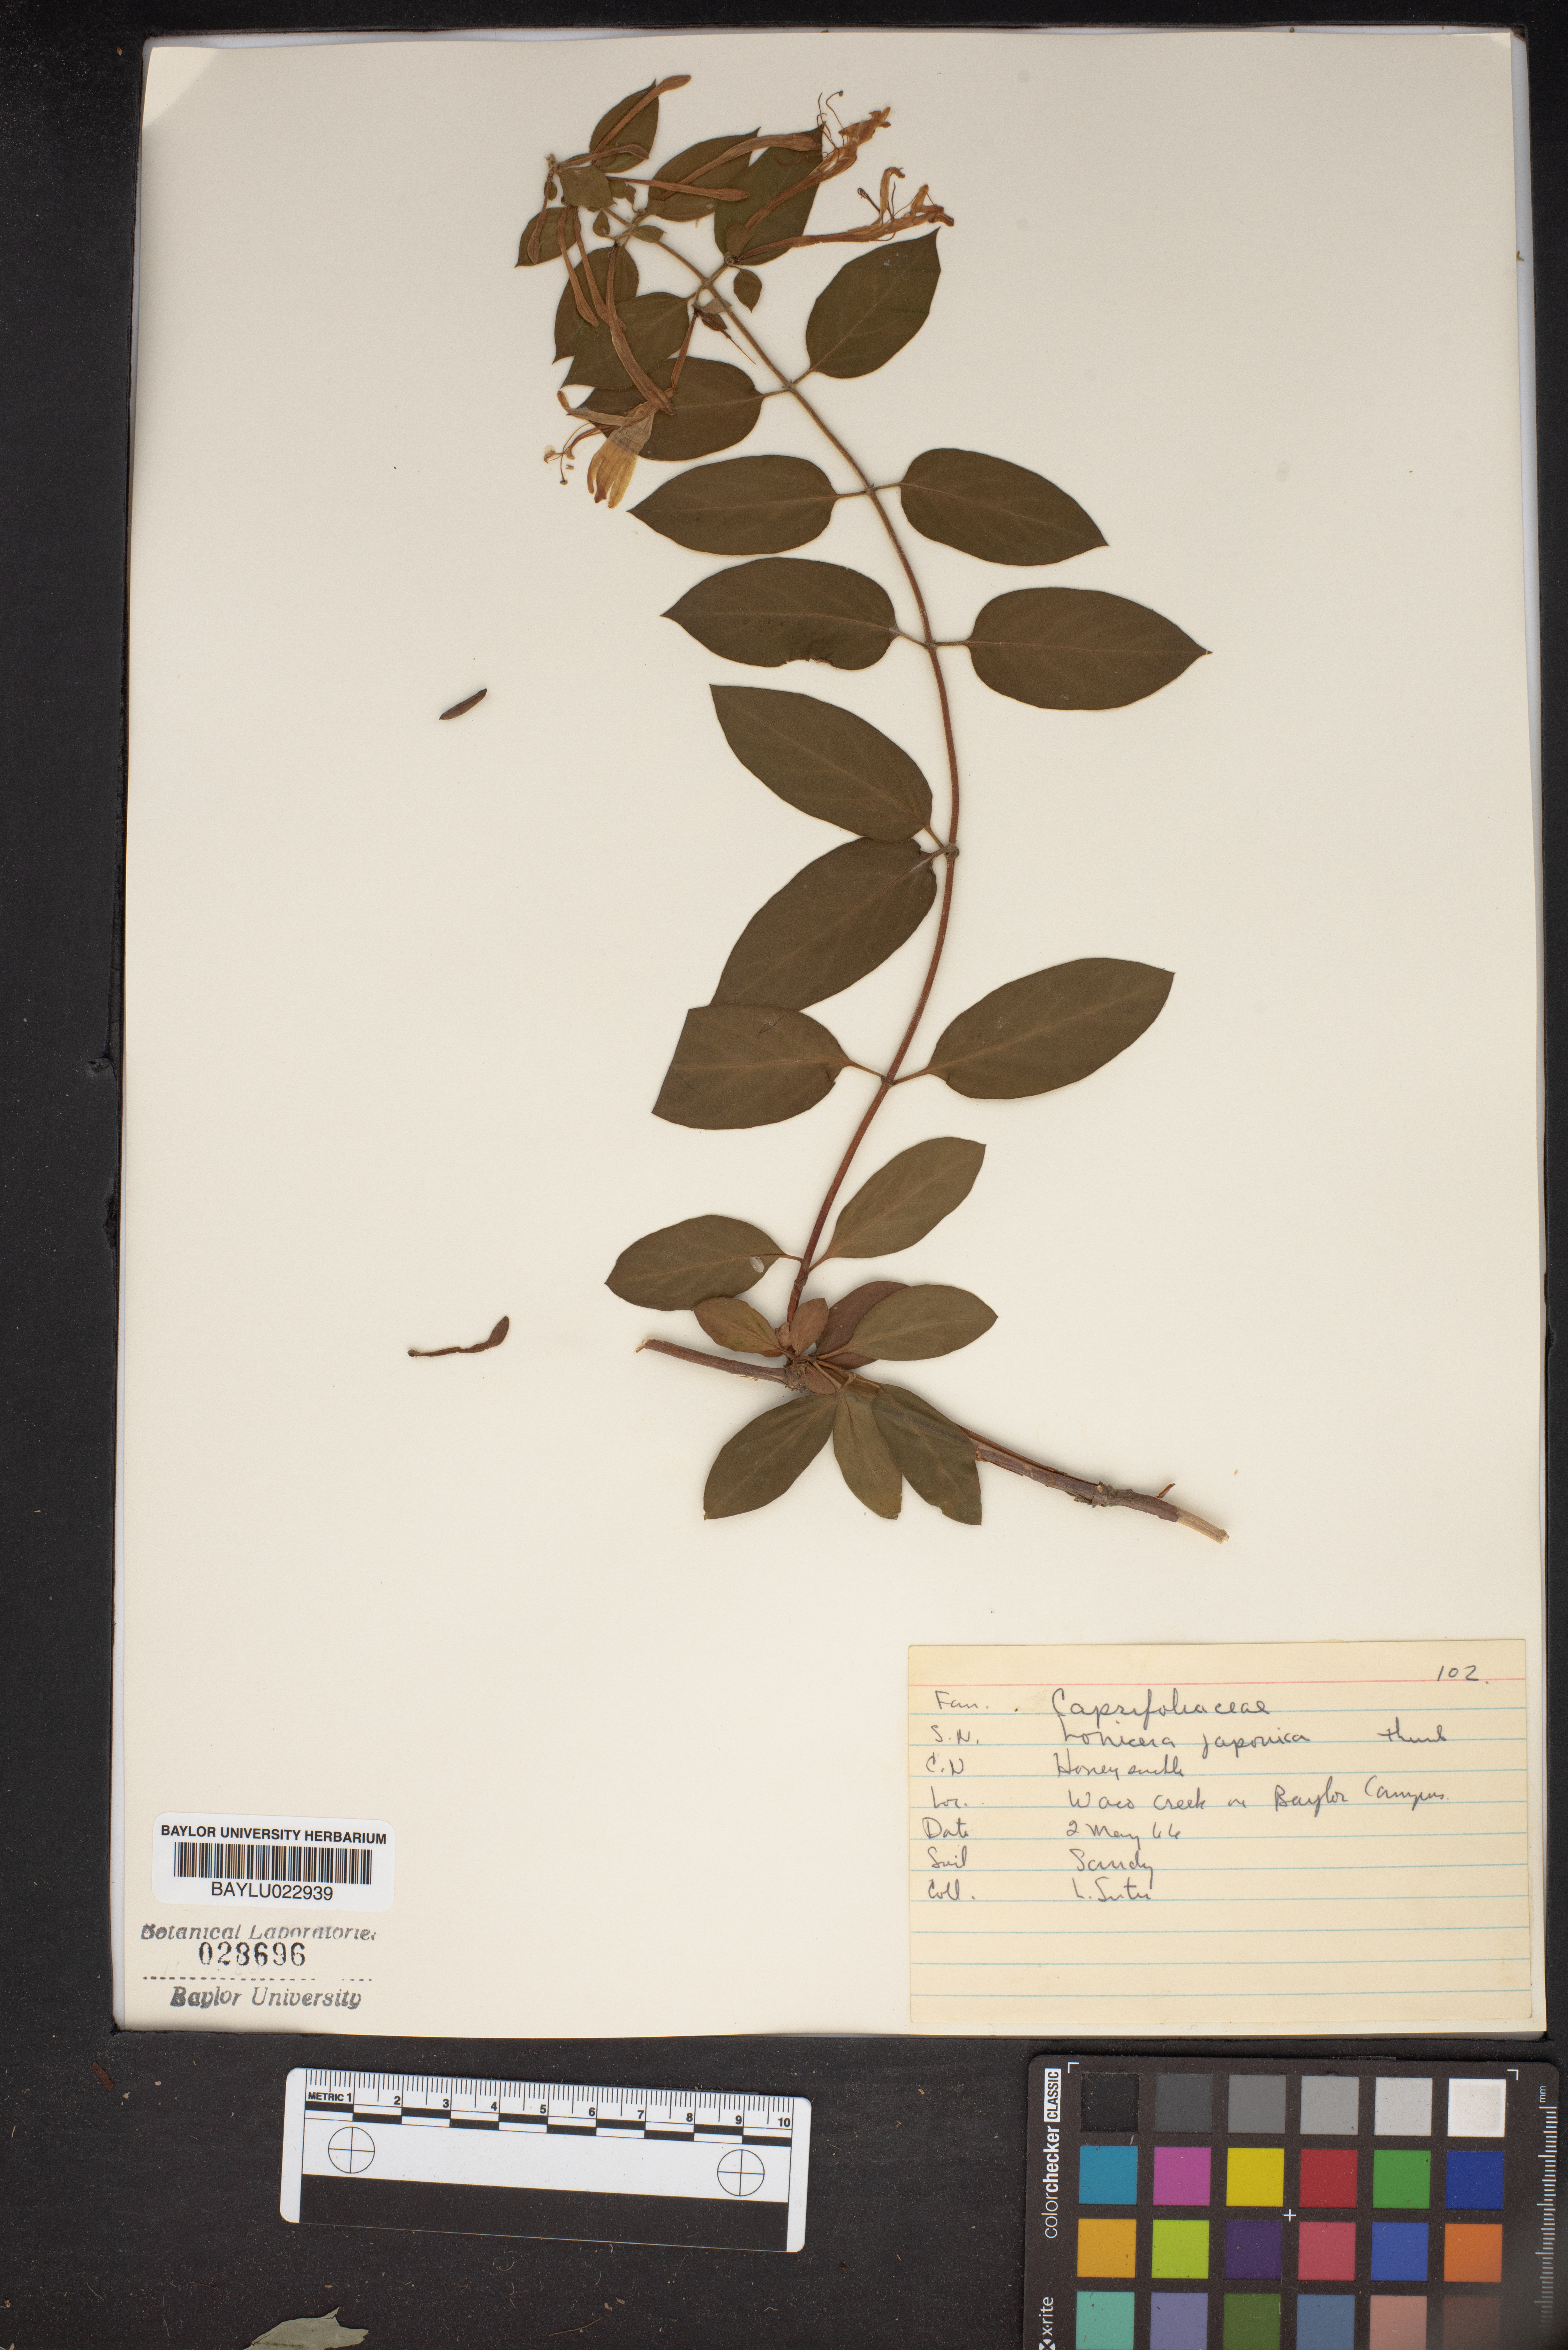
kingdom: Plantae
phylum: Tracheophyta
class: Magnoliopsida
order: Dipsacales
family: Caprifoliaceae
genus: Lonicera
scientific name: Lonicera japonica
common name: Japanese honeysuckle
